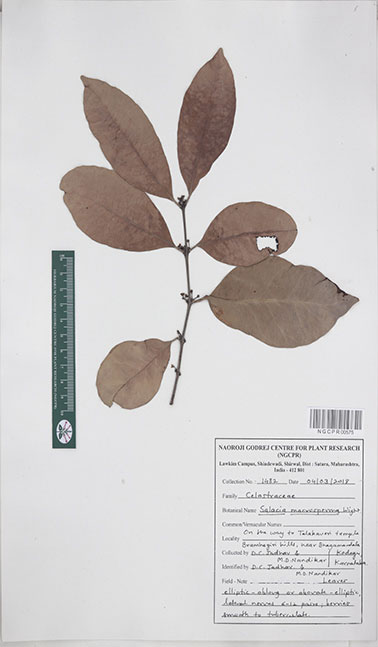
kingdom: Plantae
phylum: Tracheophyta
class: Magnoliopsida
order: Celastrales
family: Celastraceae
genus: Salacia
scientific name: Salacia macrosperma
